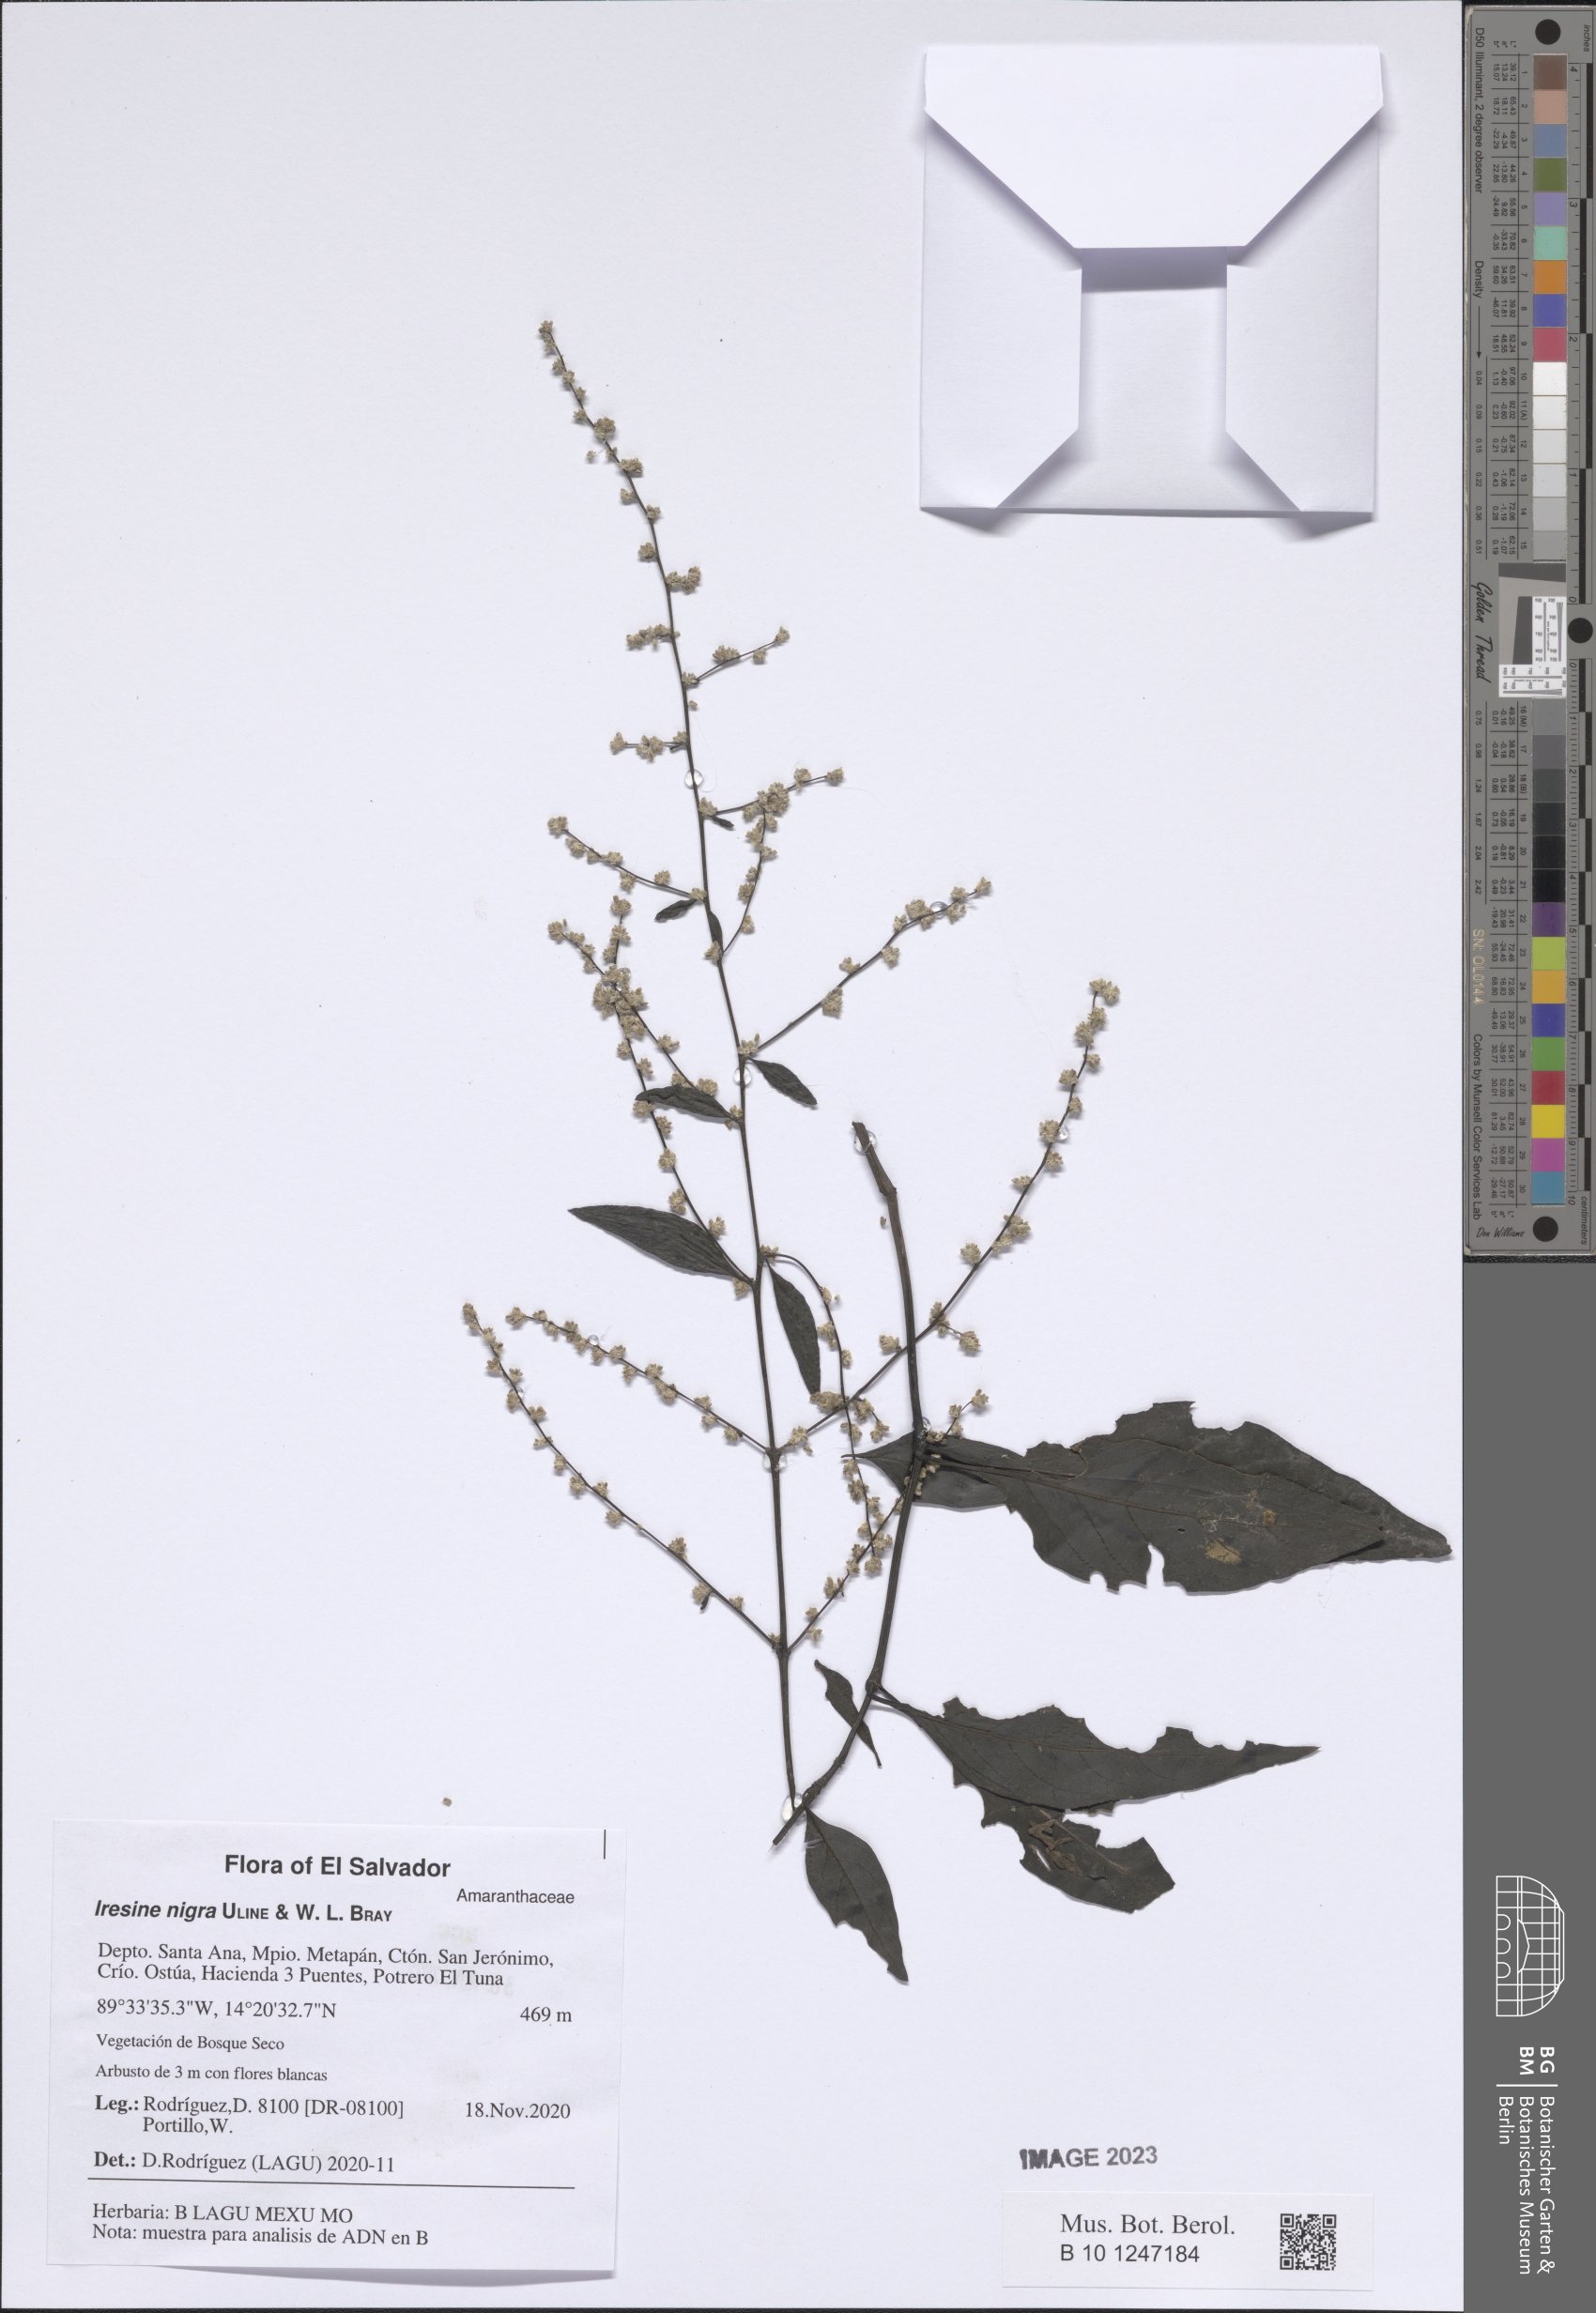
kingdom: Plantae
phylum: Tracheophyta
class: Magnoliopsida
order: Caryophyllales
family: Amaranthaceae
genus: Iresine
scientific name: Iresine nigra
